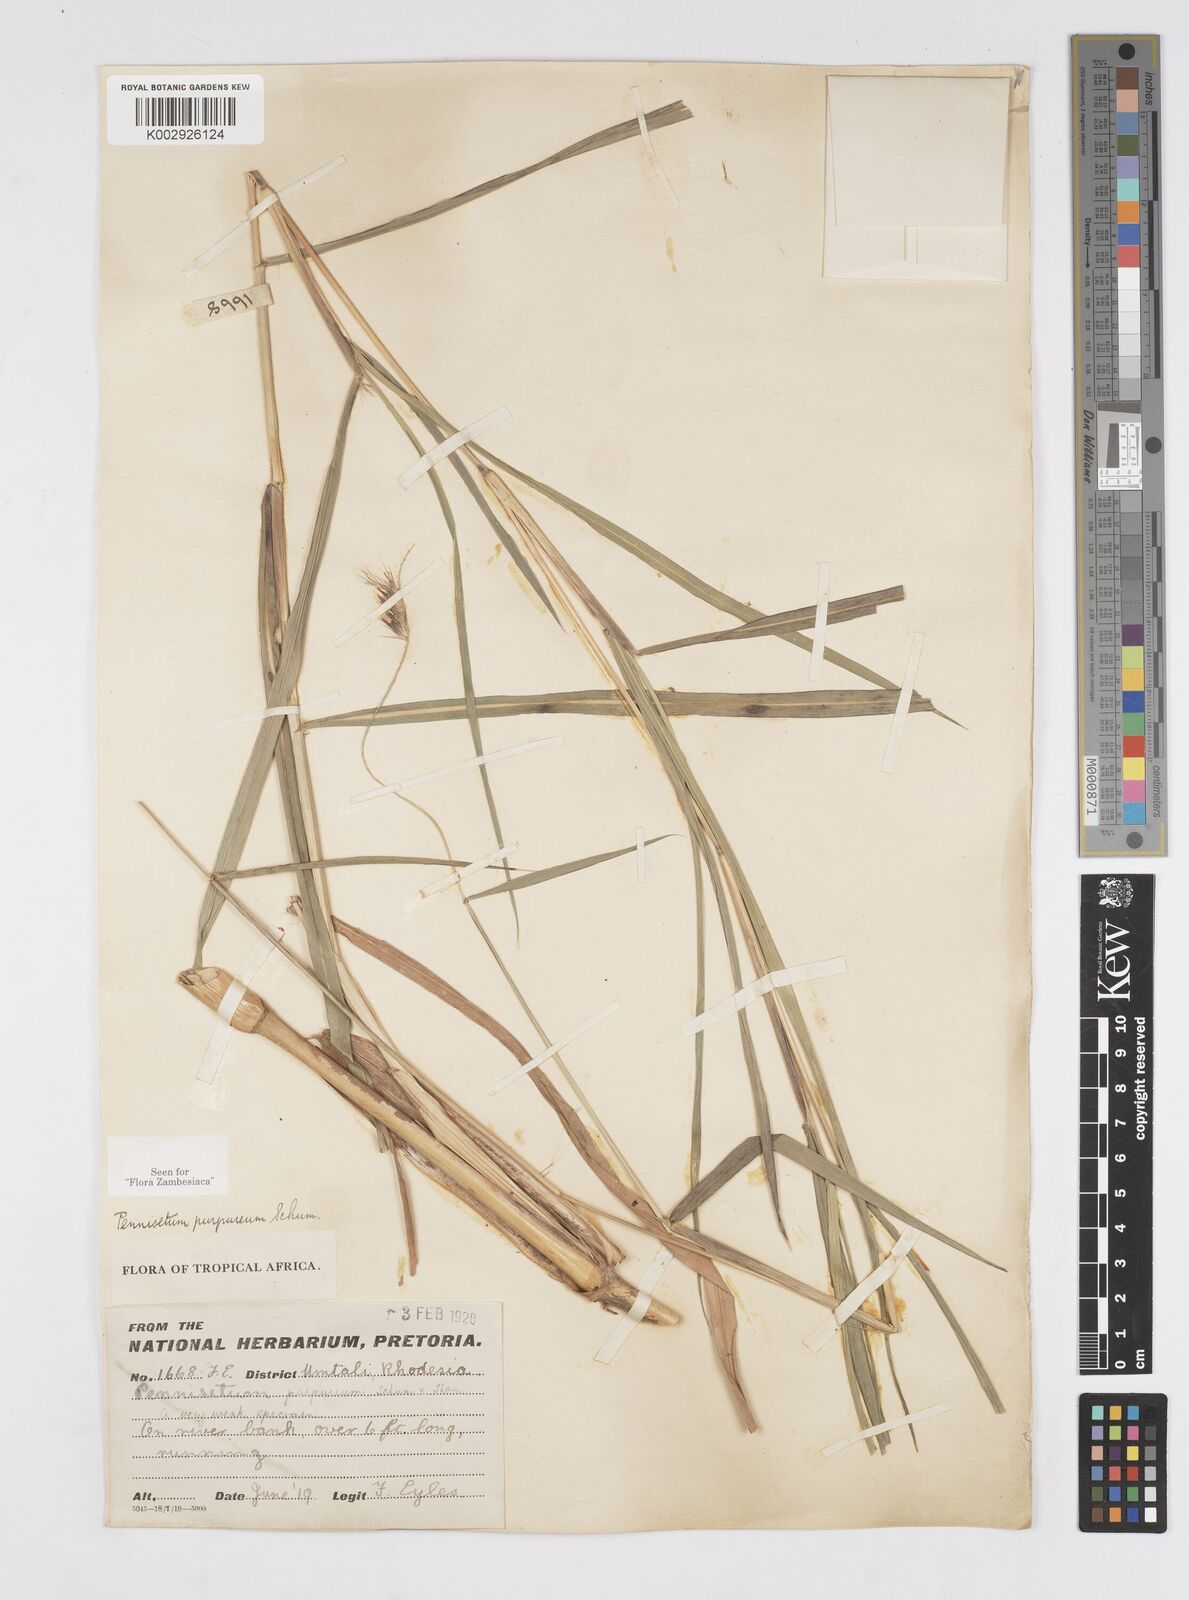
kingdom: Plantae
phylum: Tracheophyta
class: Liliopsida
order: Poales
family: Poaceae
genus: Cenchrus
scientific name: Cenchrus purpureus
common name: Elephant grass
